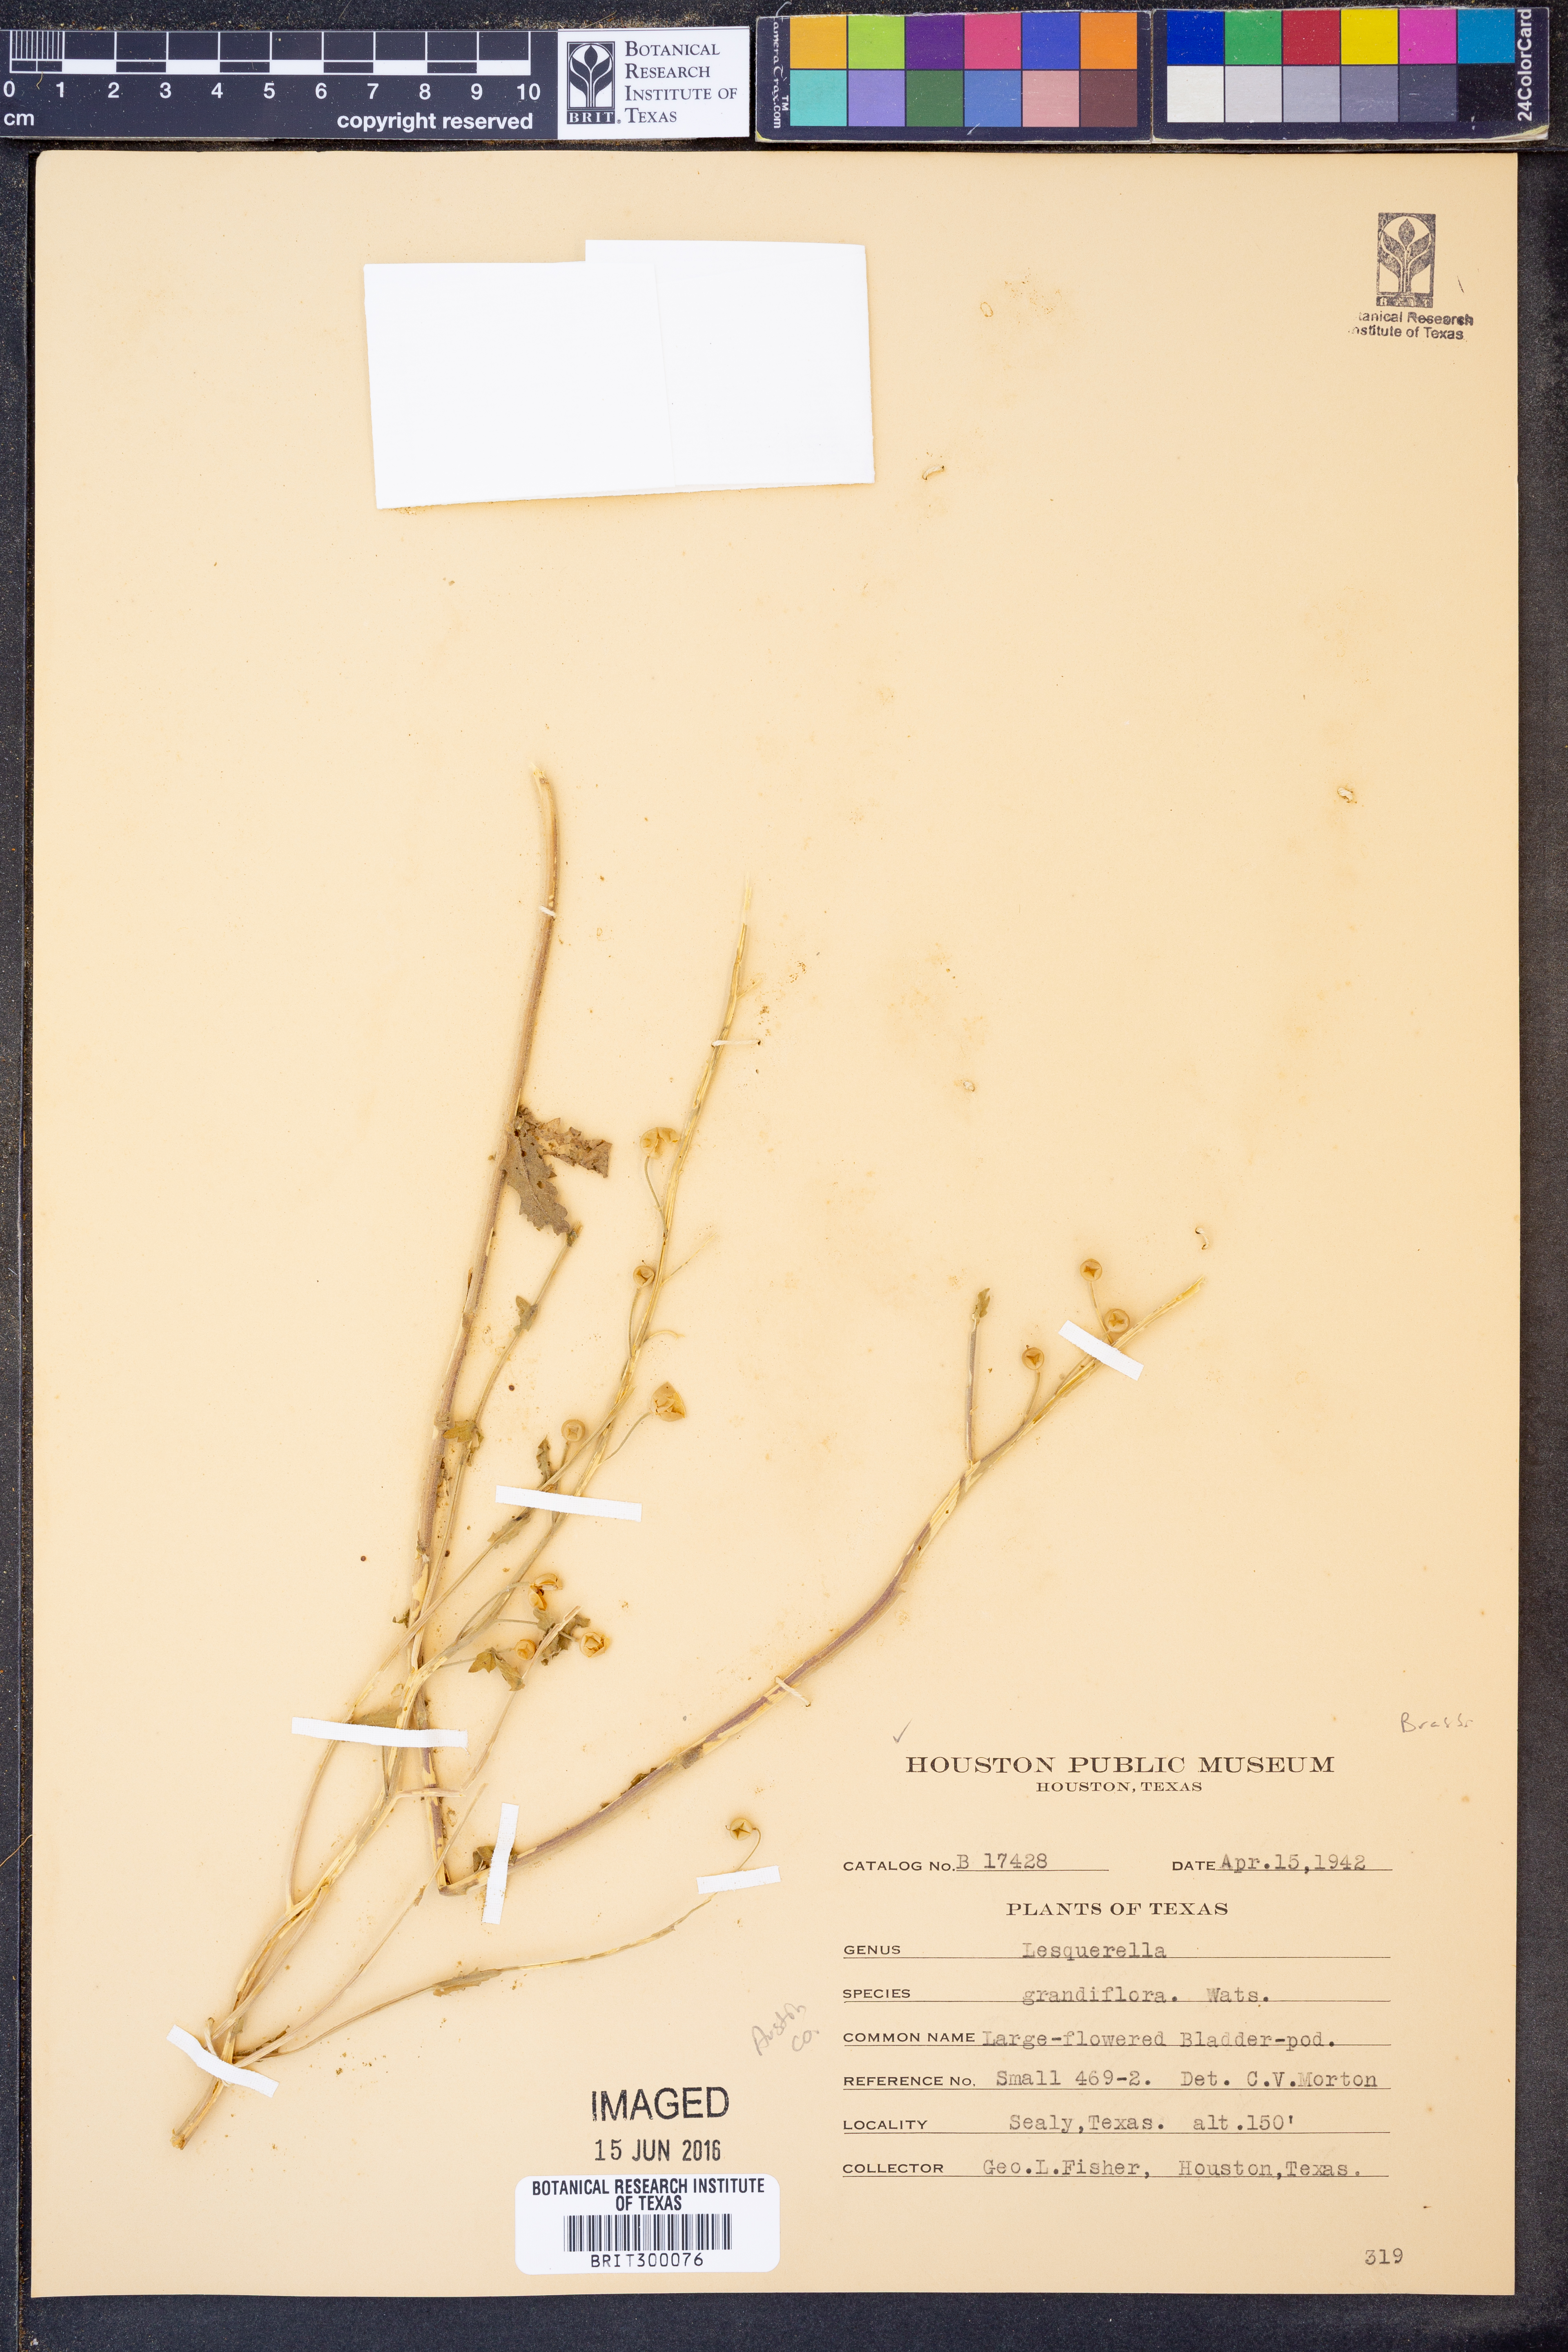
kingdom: Plantae
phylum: Tracheophyta
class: Magnoliopsida
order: Brassicales
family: Brassicaceae
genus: Paysonia
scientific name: Paysonia grandiflora
